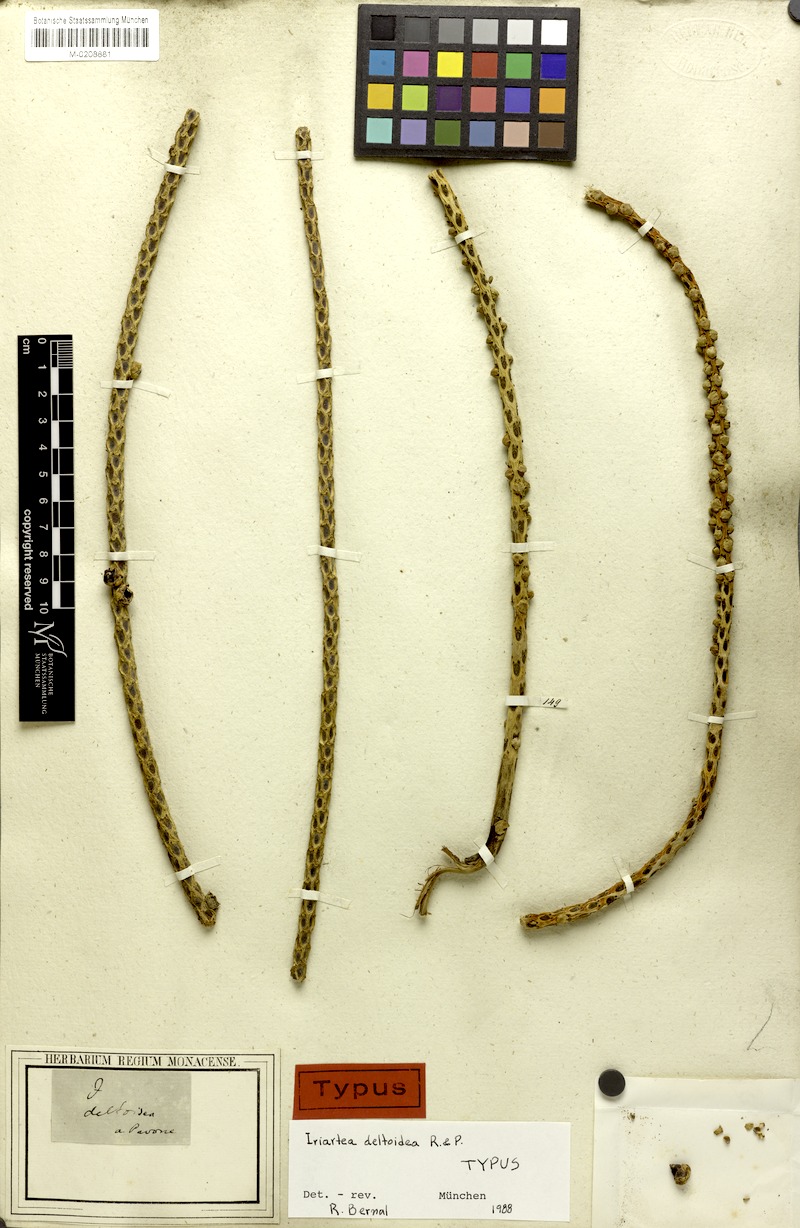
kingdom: Plantae
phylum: Tracheophyta
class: Liliopsida
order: Arecales
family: Arecaceae
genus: Iriartea
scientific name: Iriartea deltoidea
